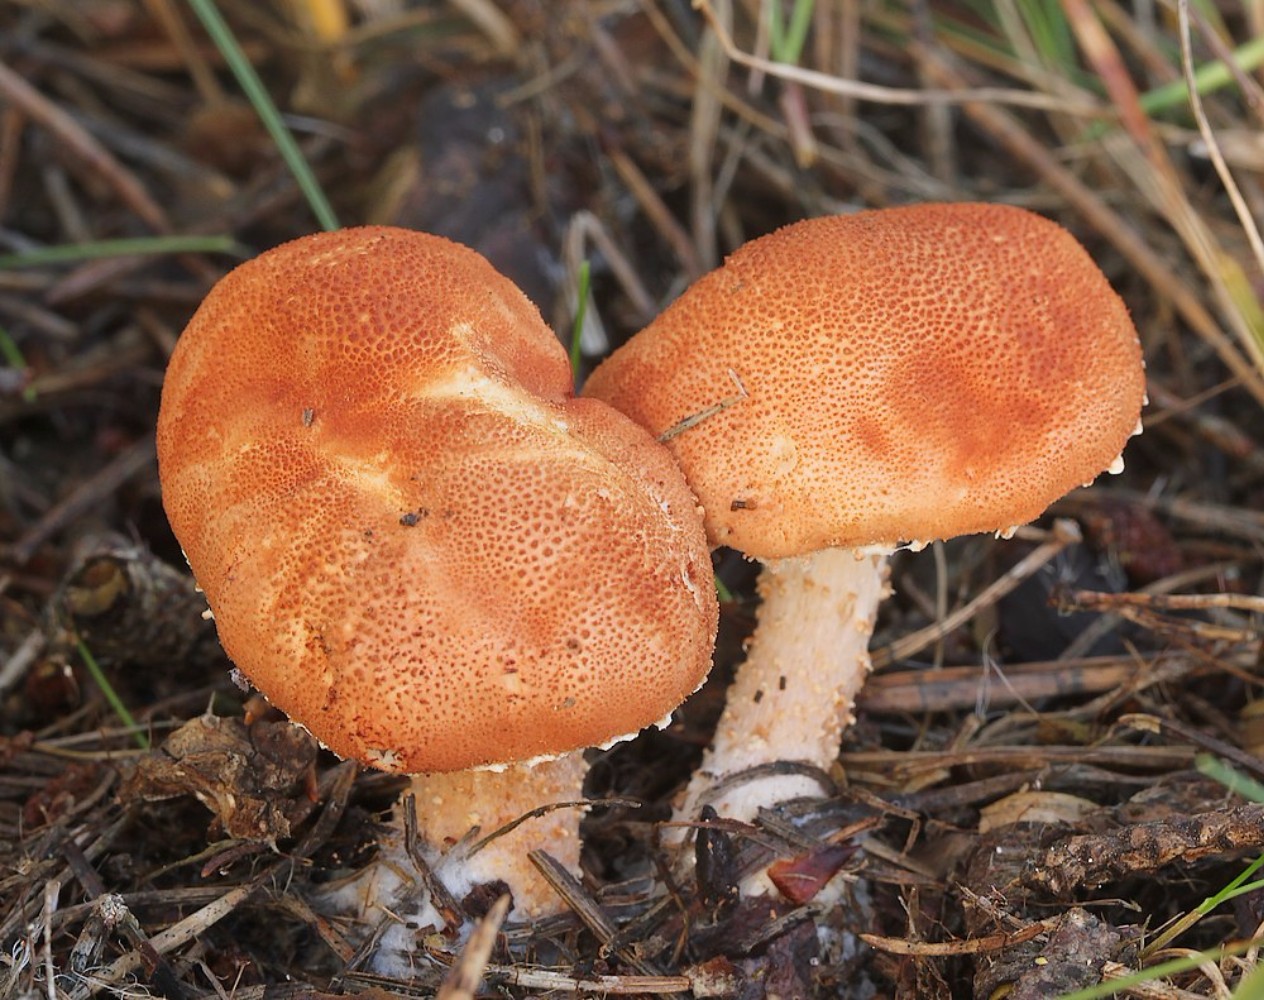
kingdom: Fungi
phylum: Basidiomycota
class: Agaricomycetes
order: Agaricales
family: Agaricaceae
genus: Cystodermella
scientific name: Cystodermella cinnabarina
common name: cinnober-grynhat
